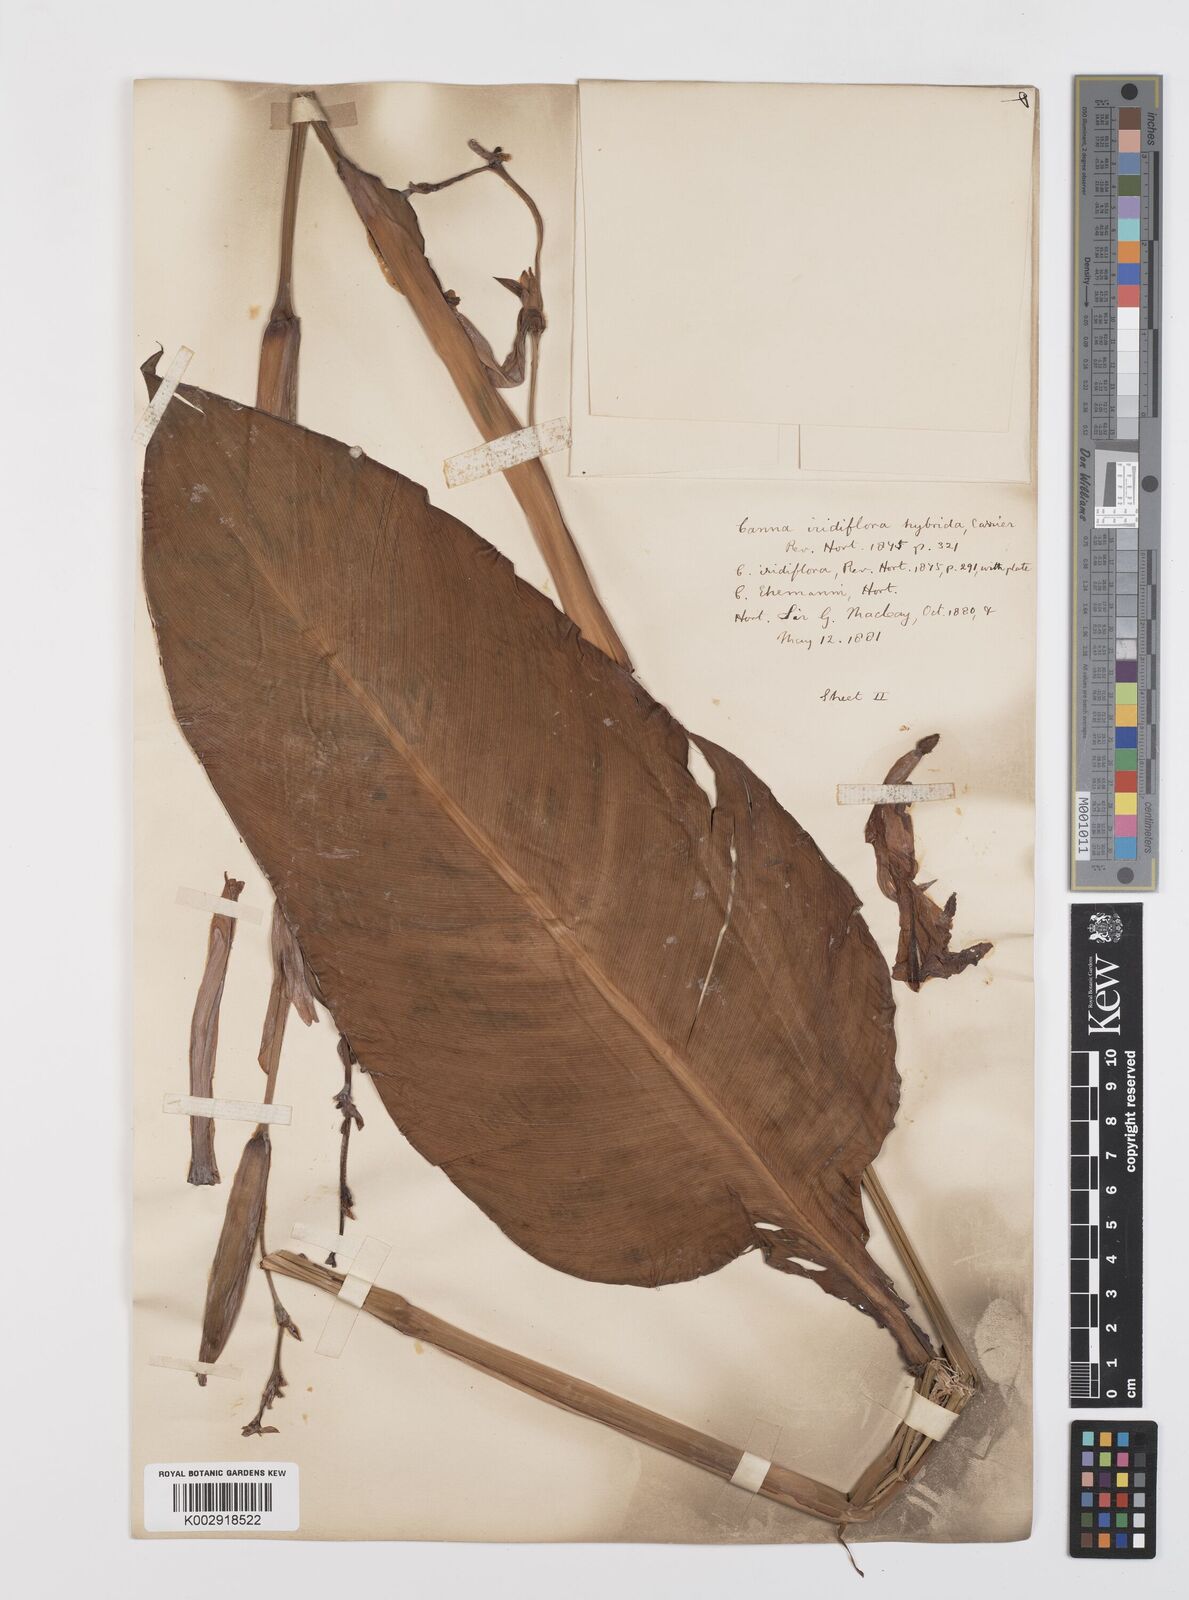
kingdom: Plantae
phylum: Tracheophyta
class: Liliopsida
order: Zingiberales
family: Cannaceae
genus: Canna
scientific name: Canna iridiflora
